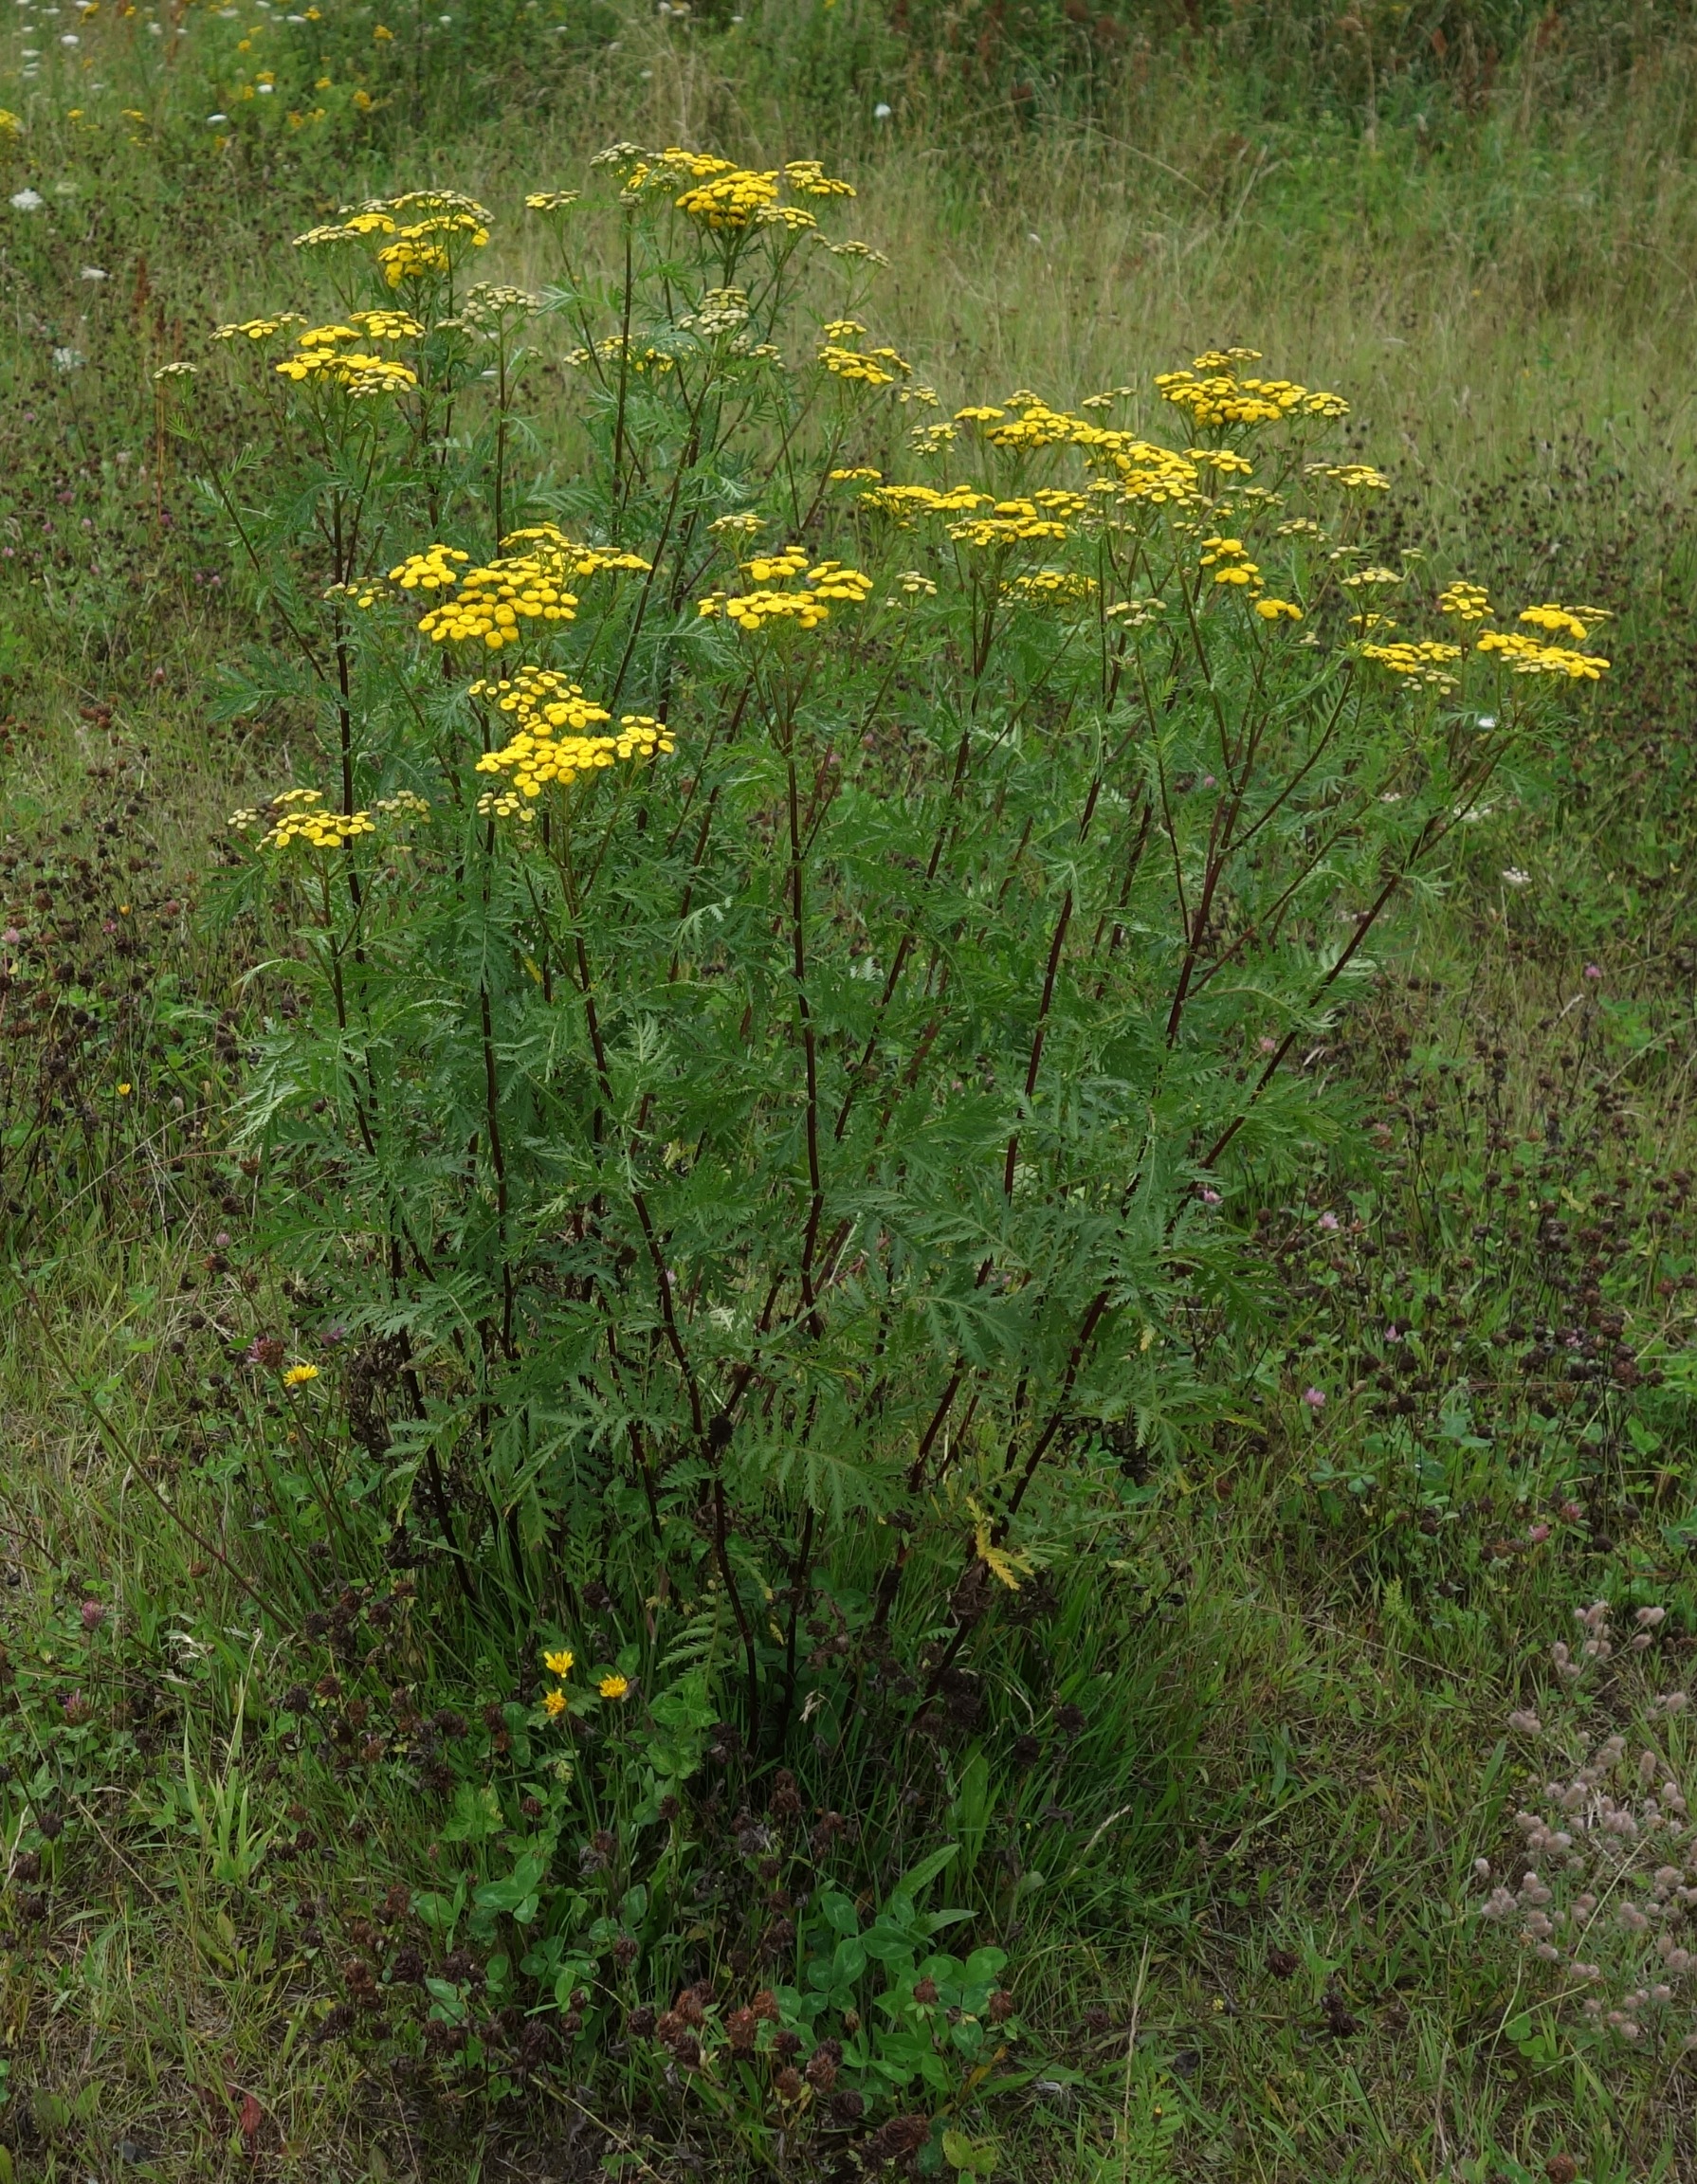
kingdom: Plantae
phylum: Tracheophyta
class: Magnoliopsida
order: Asterales
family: Asteraceae
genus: Tanacetum
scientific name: Tanacetum vulgare
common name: Rejnfan
